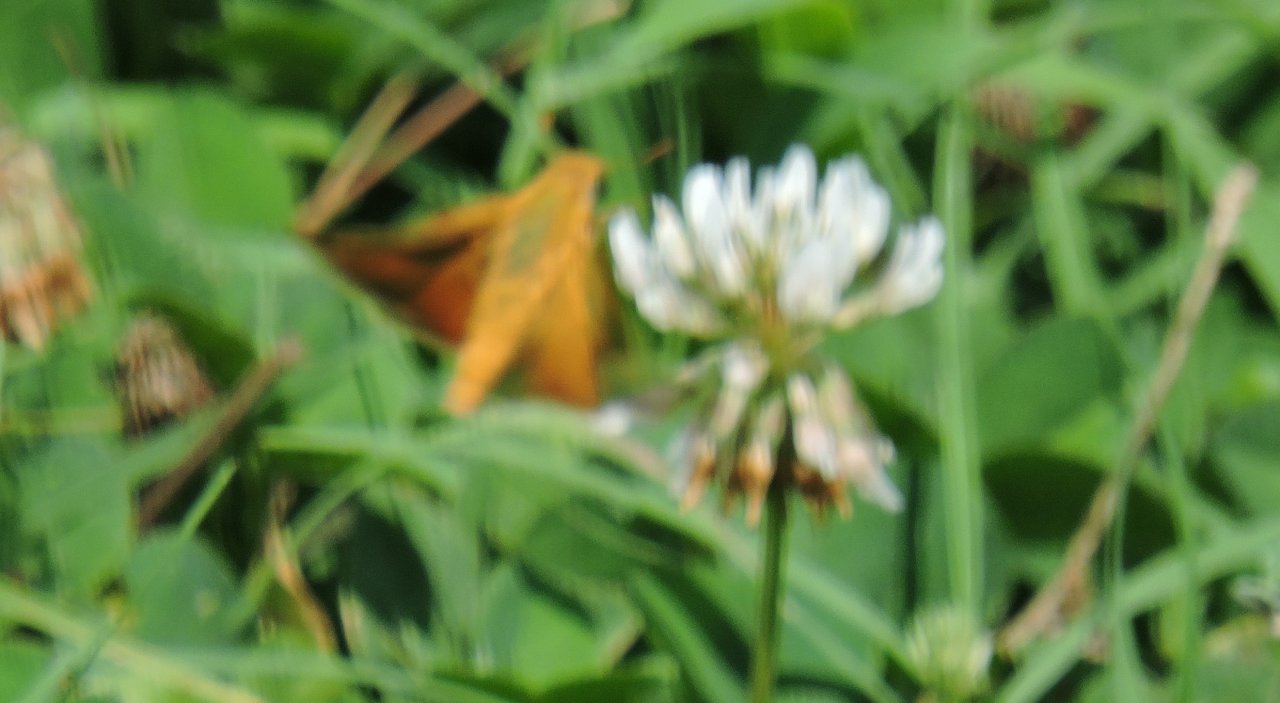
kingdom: Animalia
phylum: Arthropoda
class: Insecta
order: Lepidoptera
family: Hesperiidae
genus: Hylephila
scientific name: Hylephila phyleus
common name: Fiery Skipper
